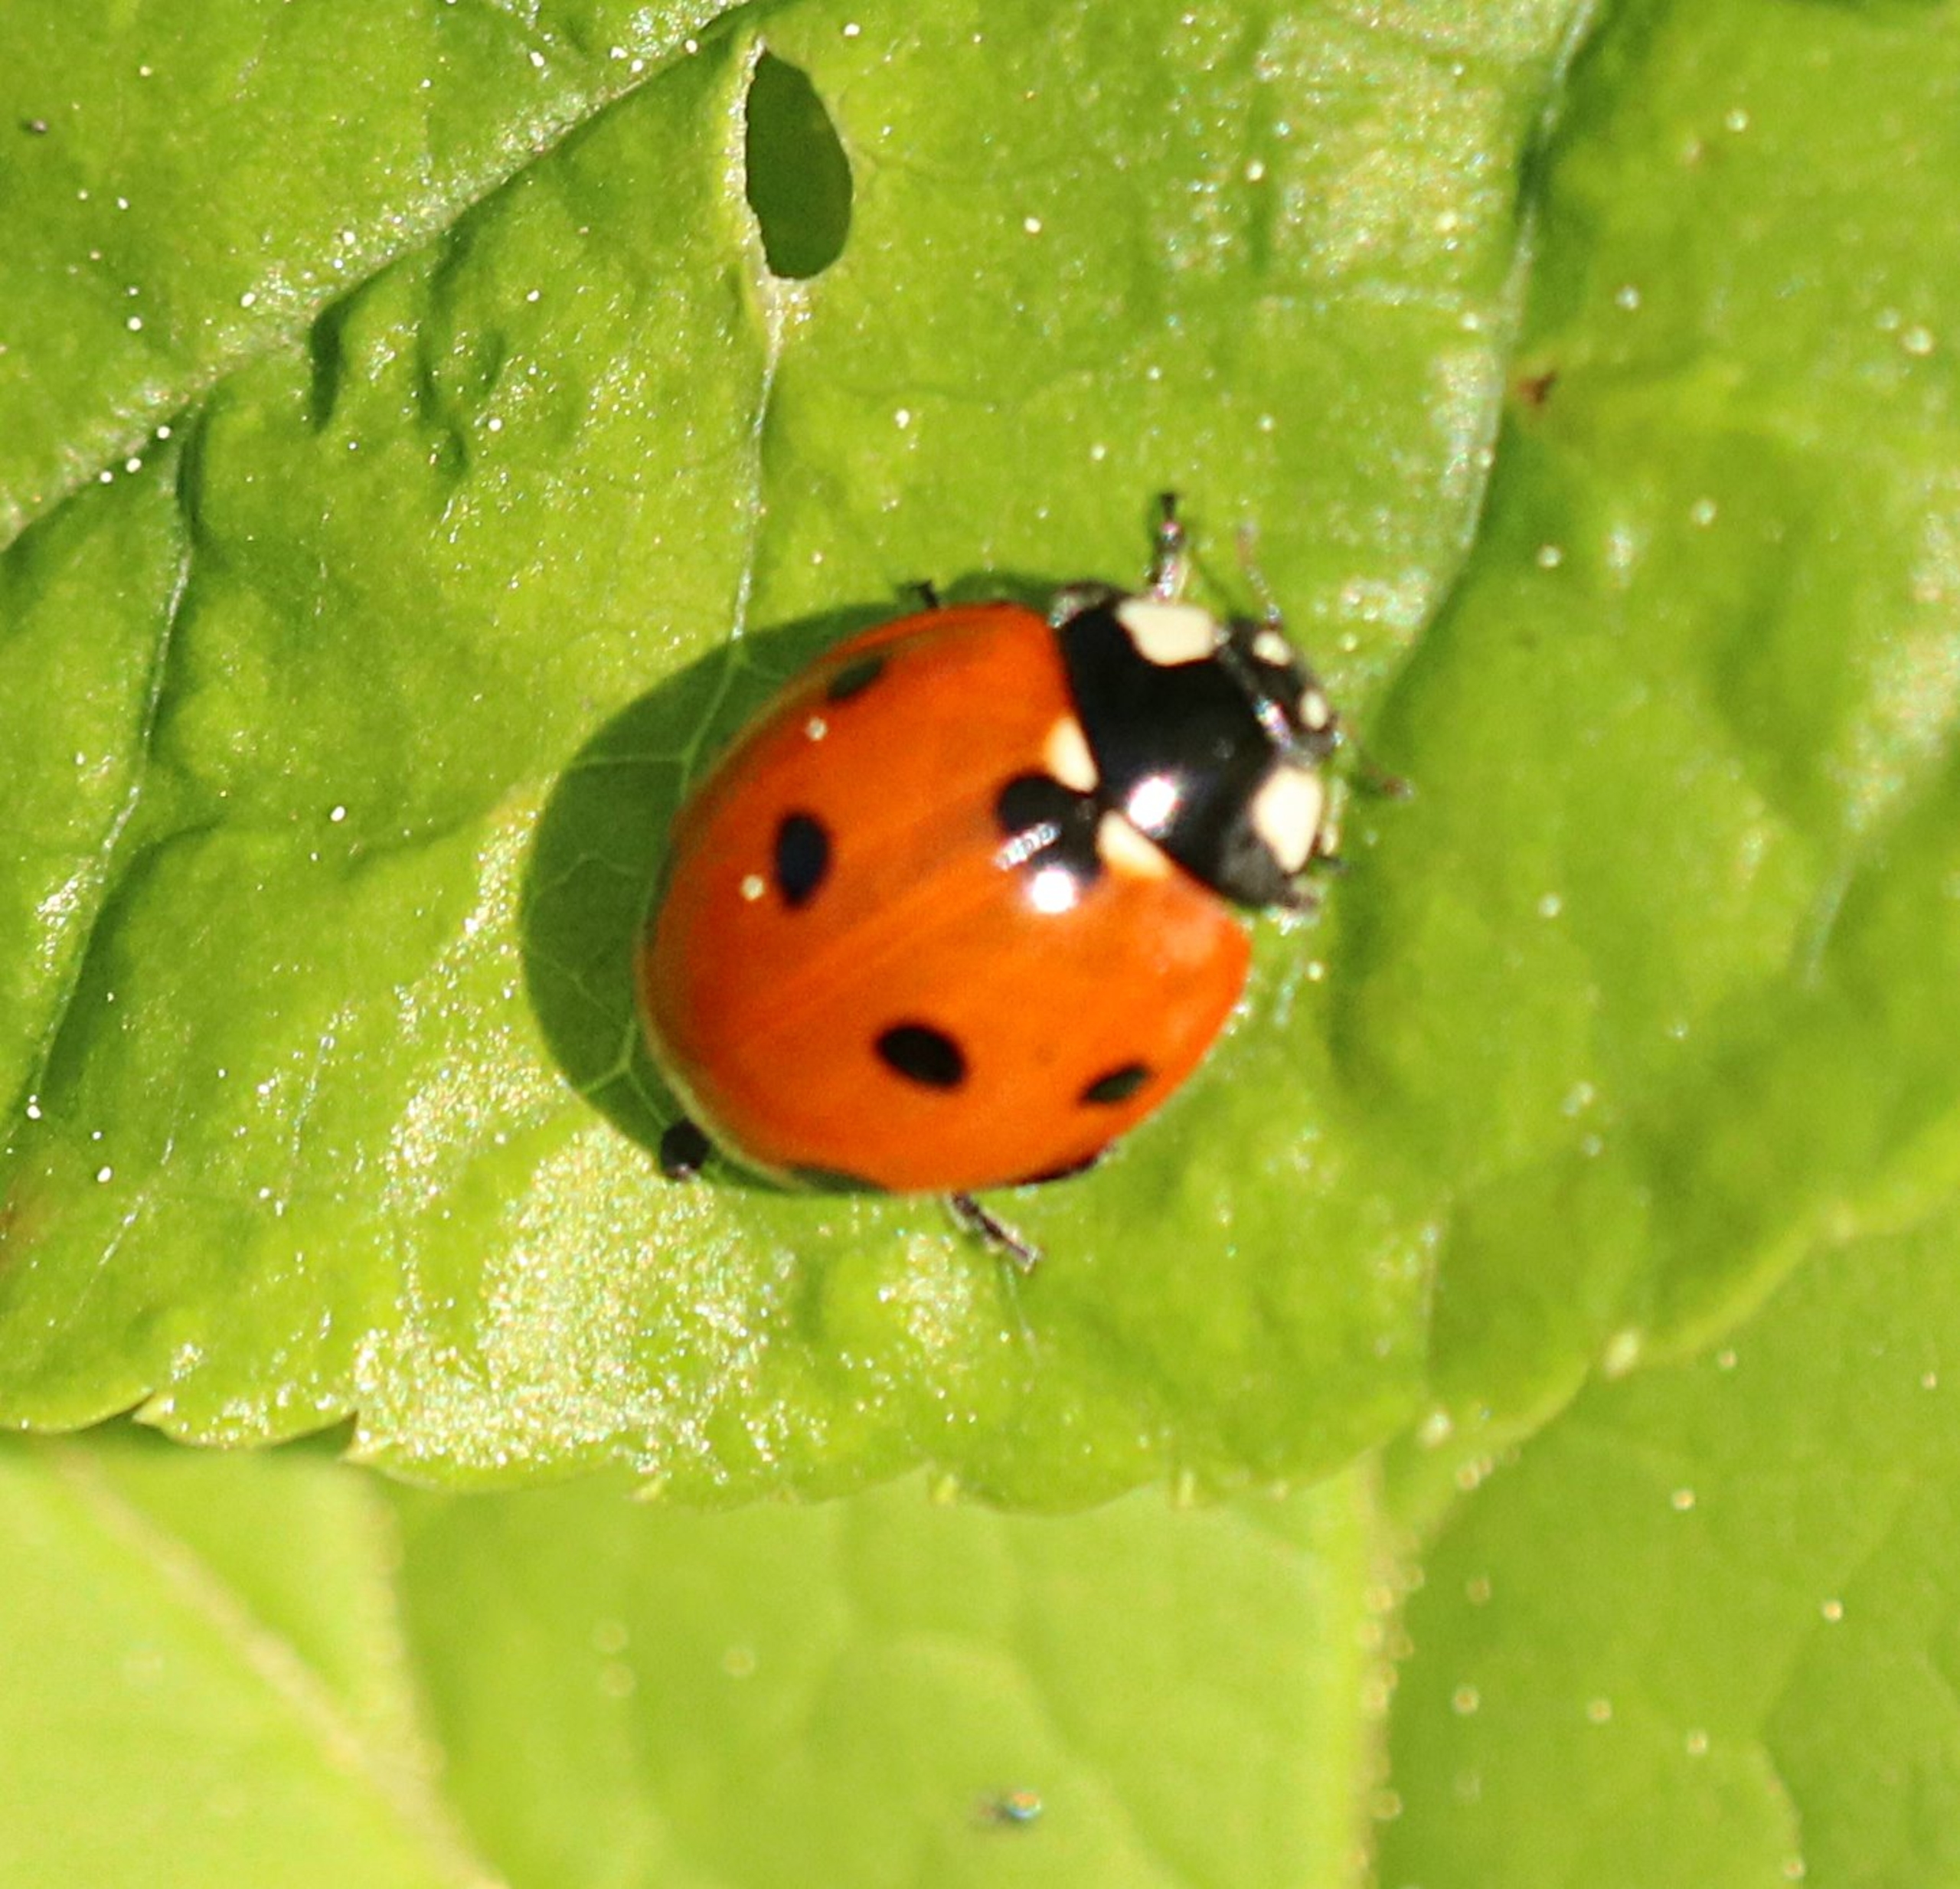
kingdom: Animalia
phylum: Arthropoda
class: Insecta
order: Coleoptera
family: Coccinellidae
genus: Coccinella
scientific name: Coccinella septempunctata
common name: Syvplettet mariehøne
